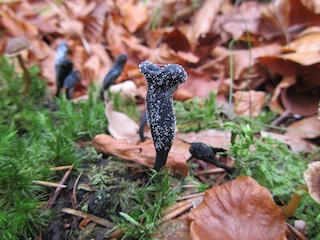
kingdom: Fungi
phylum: Ascomycota
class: Sordariomycetes
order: Hypocreales
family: Ophiocordycipitaceae
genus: Tolypocladium
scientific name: Tolypocladium ophioglossoides
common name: slank snyltekølle
